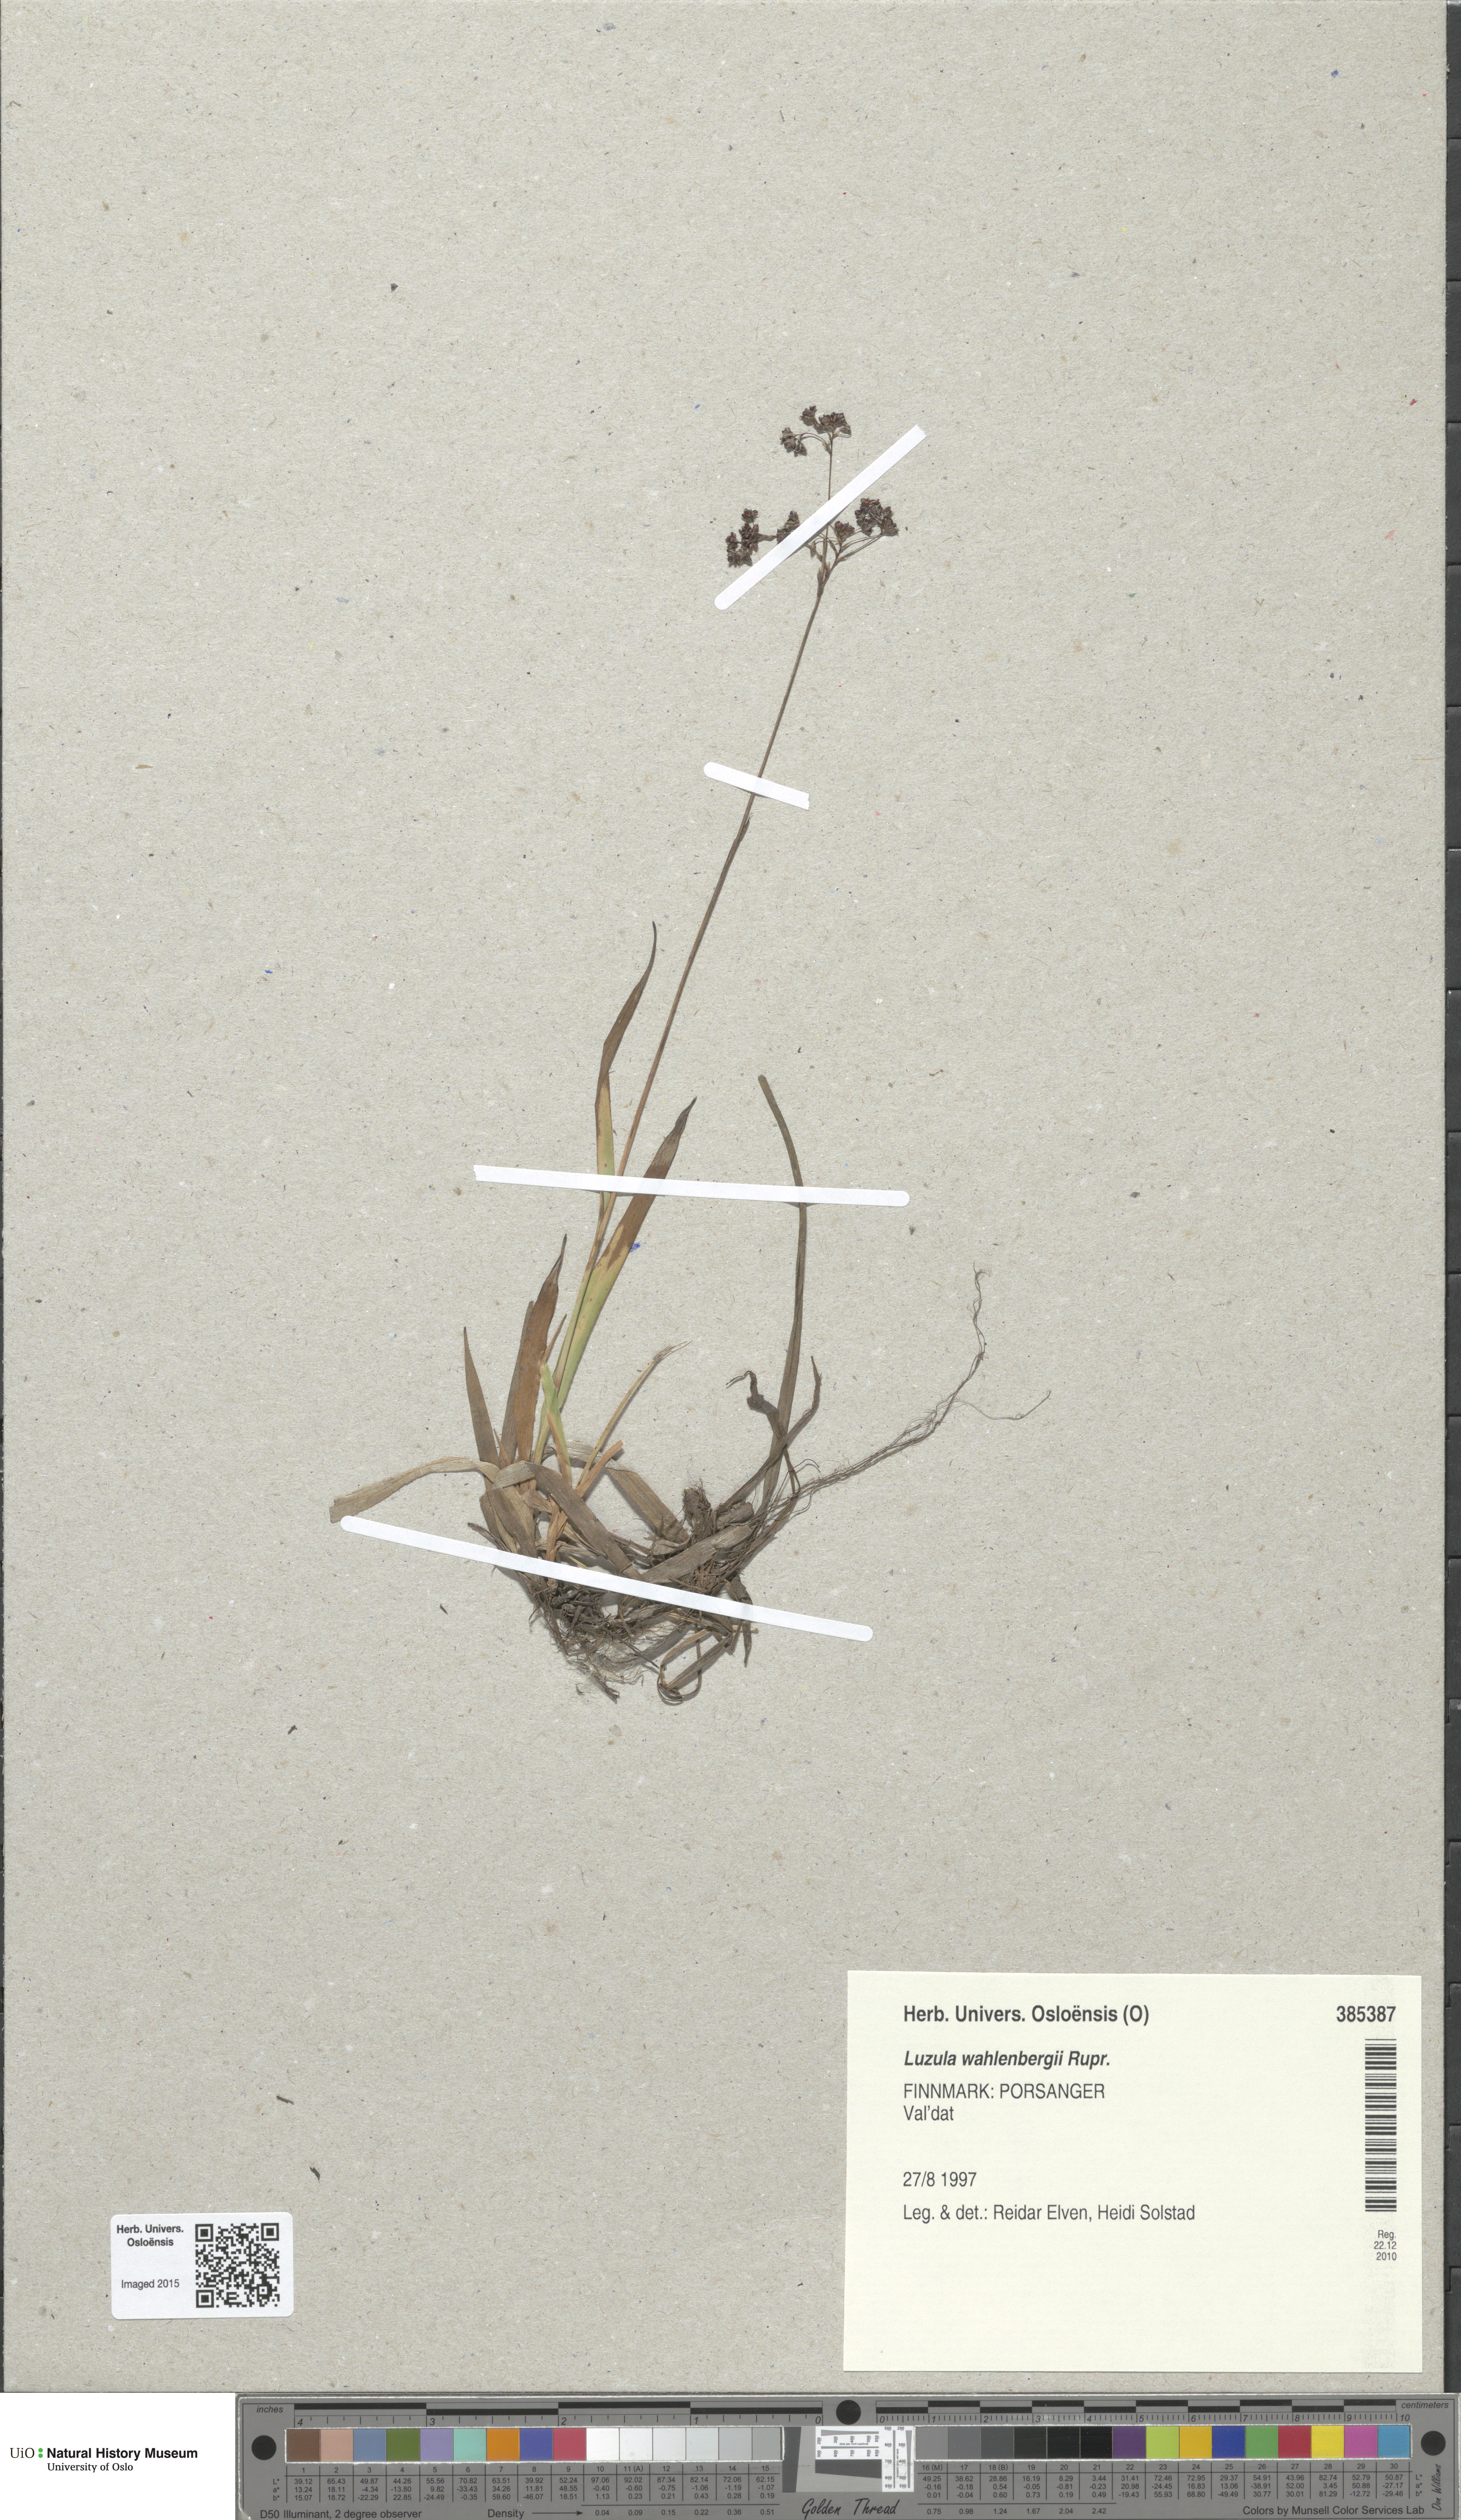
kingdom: Plantae
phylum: Tracheophyta
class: Liliopsida
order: Poales
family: Juncaceae
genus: Luzula
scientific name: Luzula wahlenbergii
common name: Wahlenberg's wood-rush
